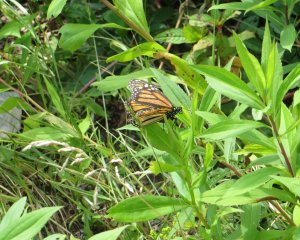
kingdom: Animalia
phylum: Arthropoda
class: Insecta
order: Lepidoptera
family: Nymphalidae
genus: Danaus
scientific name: Danaus plexippus
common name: Monarch
